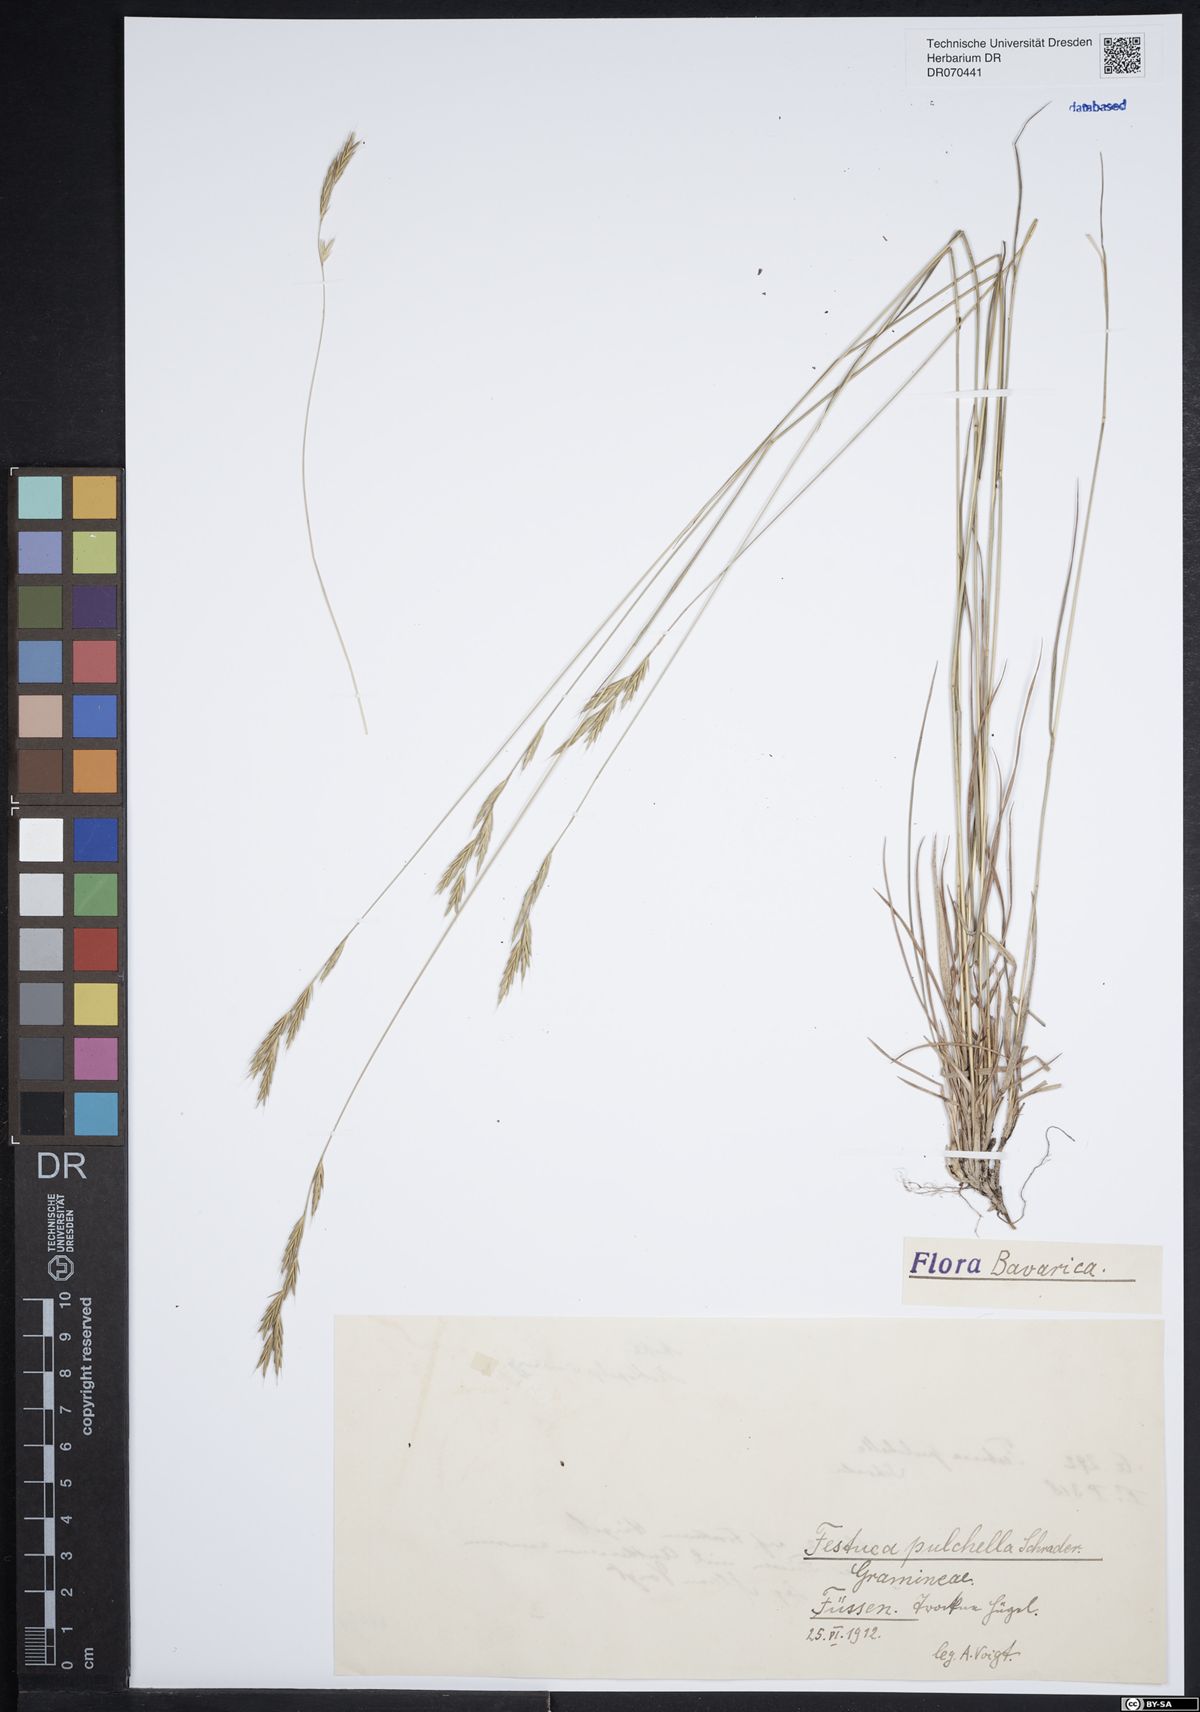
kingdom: Plantae
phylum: Tracheophyta
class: Liliopsida
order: Poales
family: Poaceae
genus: Festuca
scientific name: Festuca pulchella
